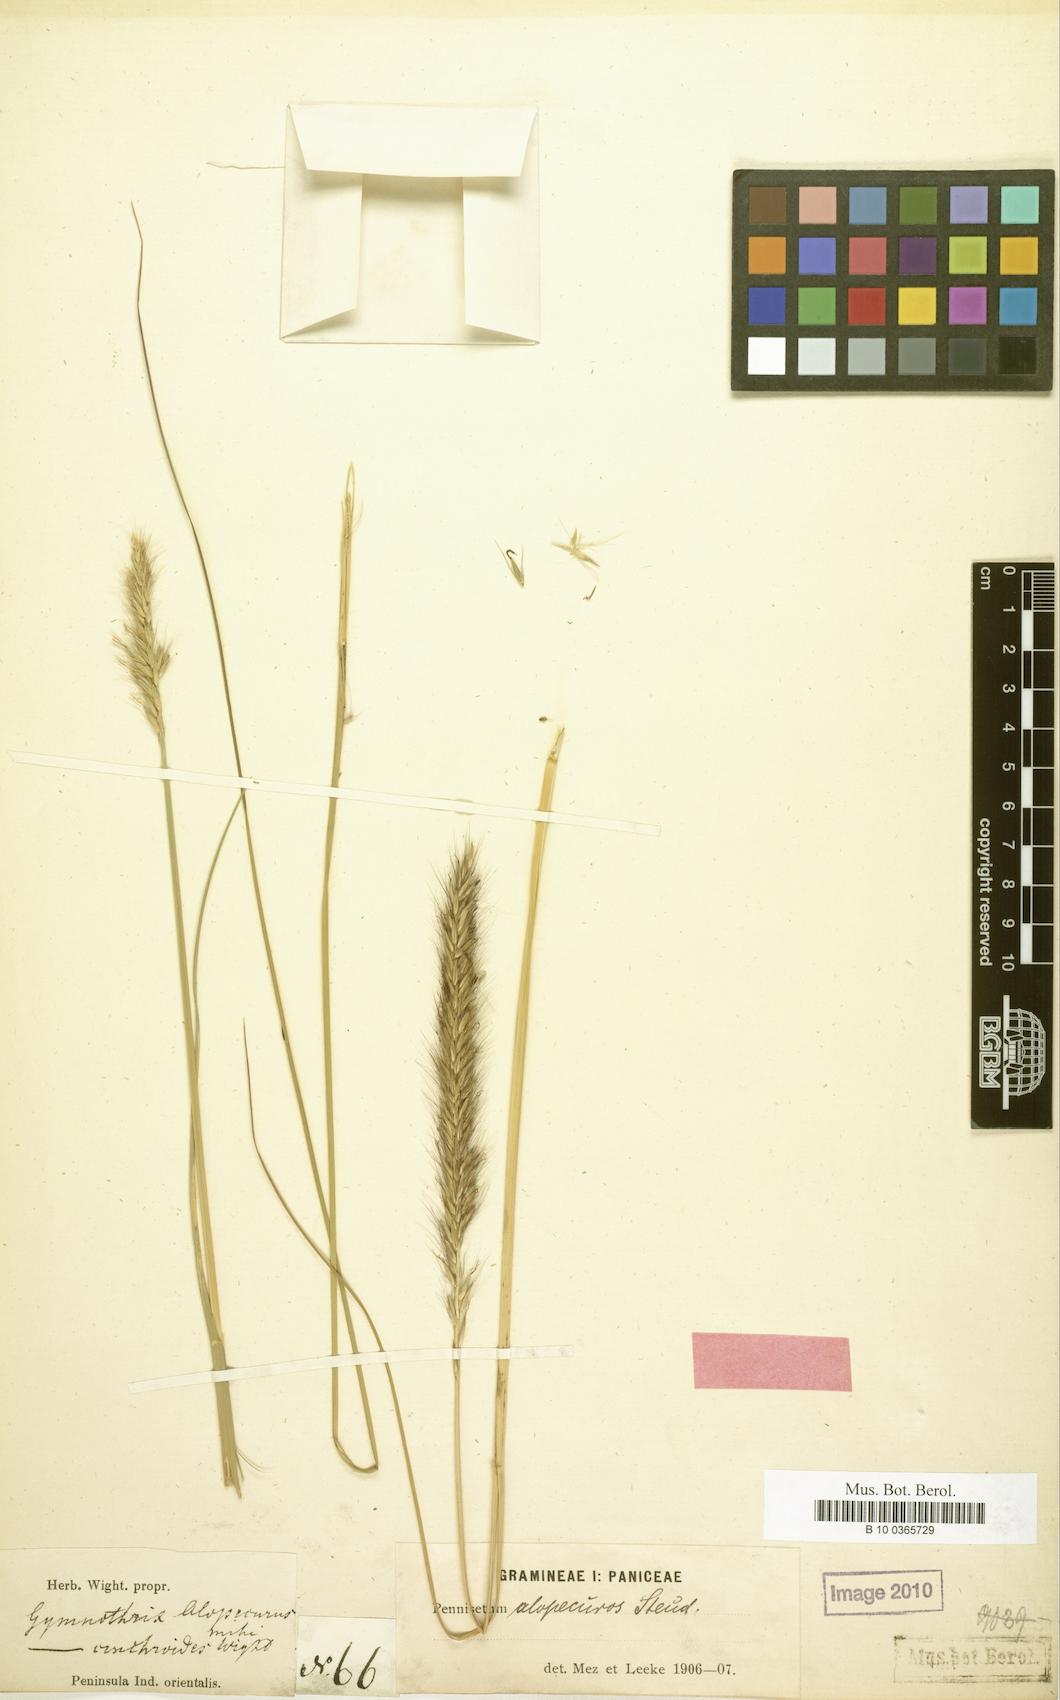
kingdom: Plantae
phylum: Tracheophyta
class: Liliopsida
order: Poales
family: Poaceae
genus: Setaria
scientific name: Setaria macrostachya
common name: Plains bristle grass
